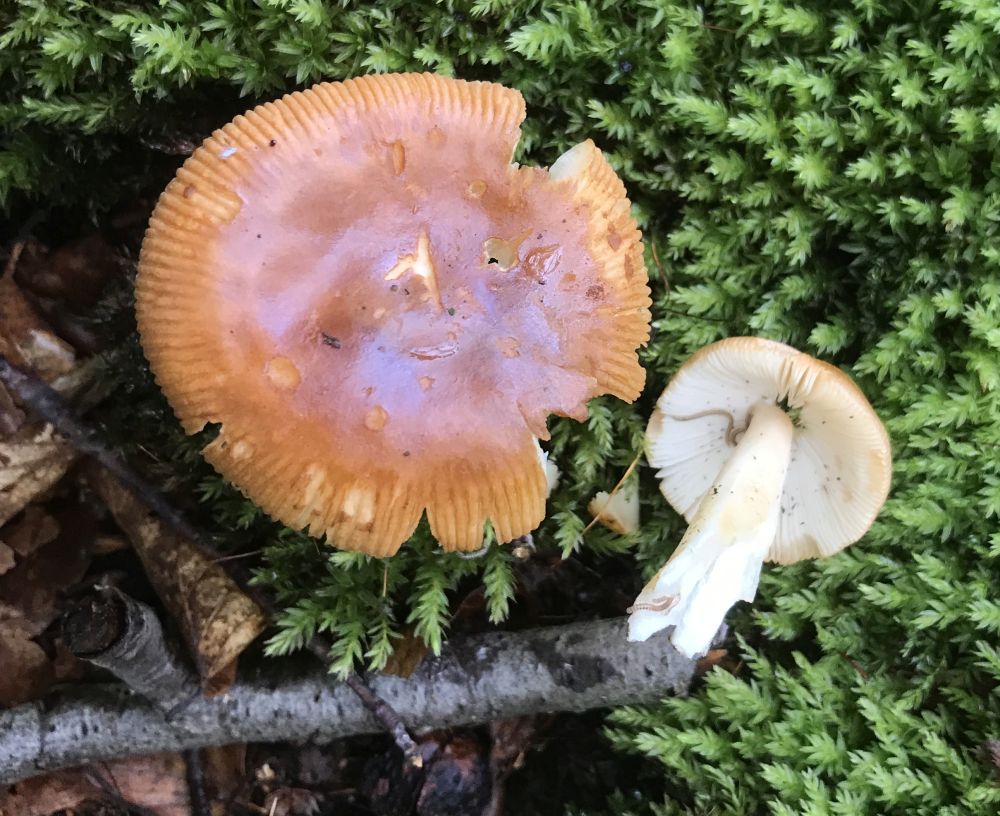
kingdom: Fungi
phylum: Basidiomycota
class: Agaricomycetes
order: Agaricales
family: Amanitaceae
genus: Amanita
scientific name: Amanita fulva
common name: brun kam-fluesvamp
